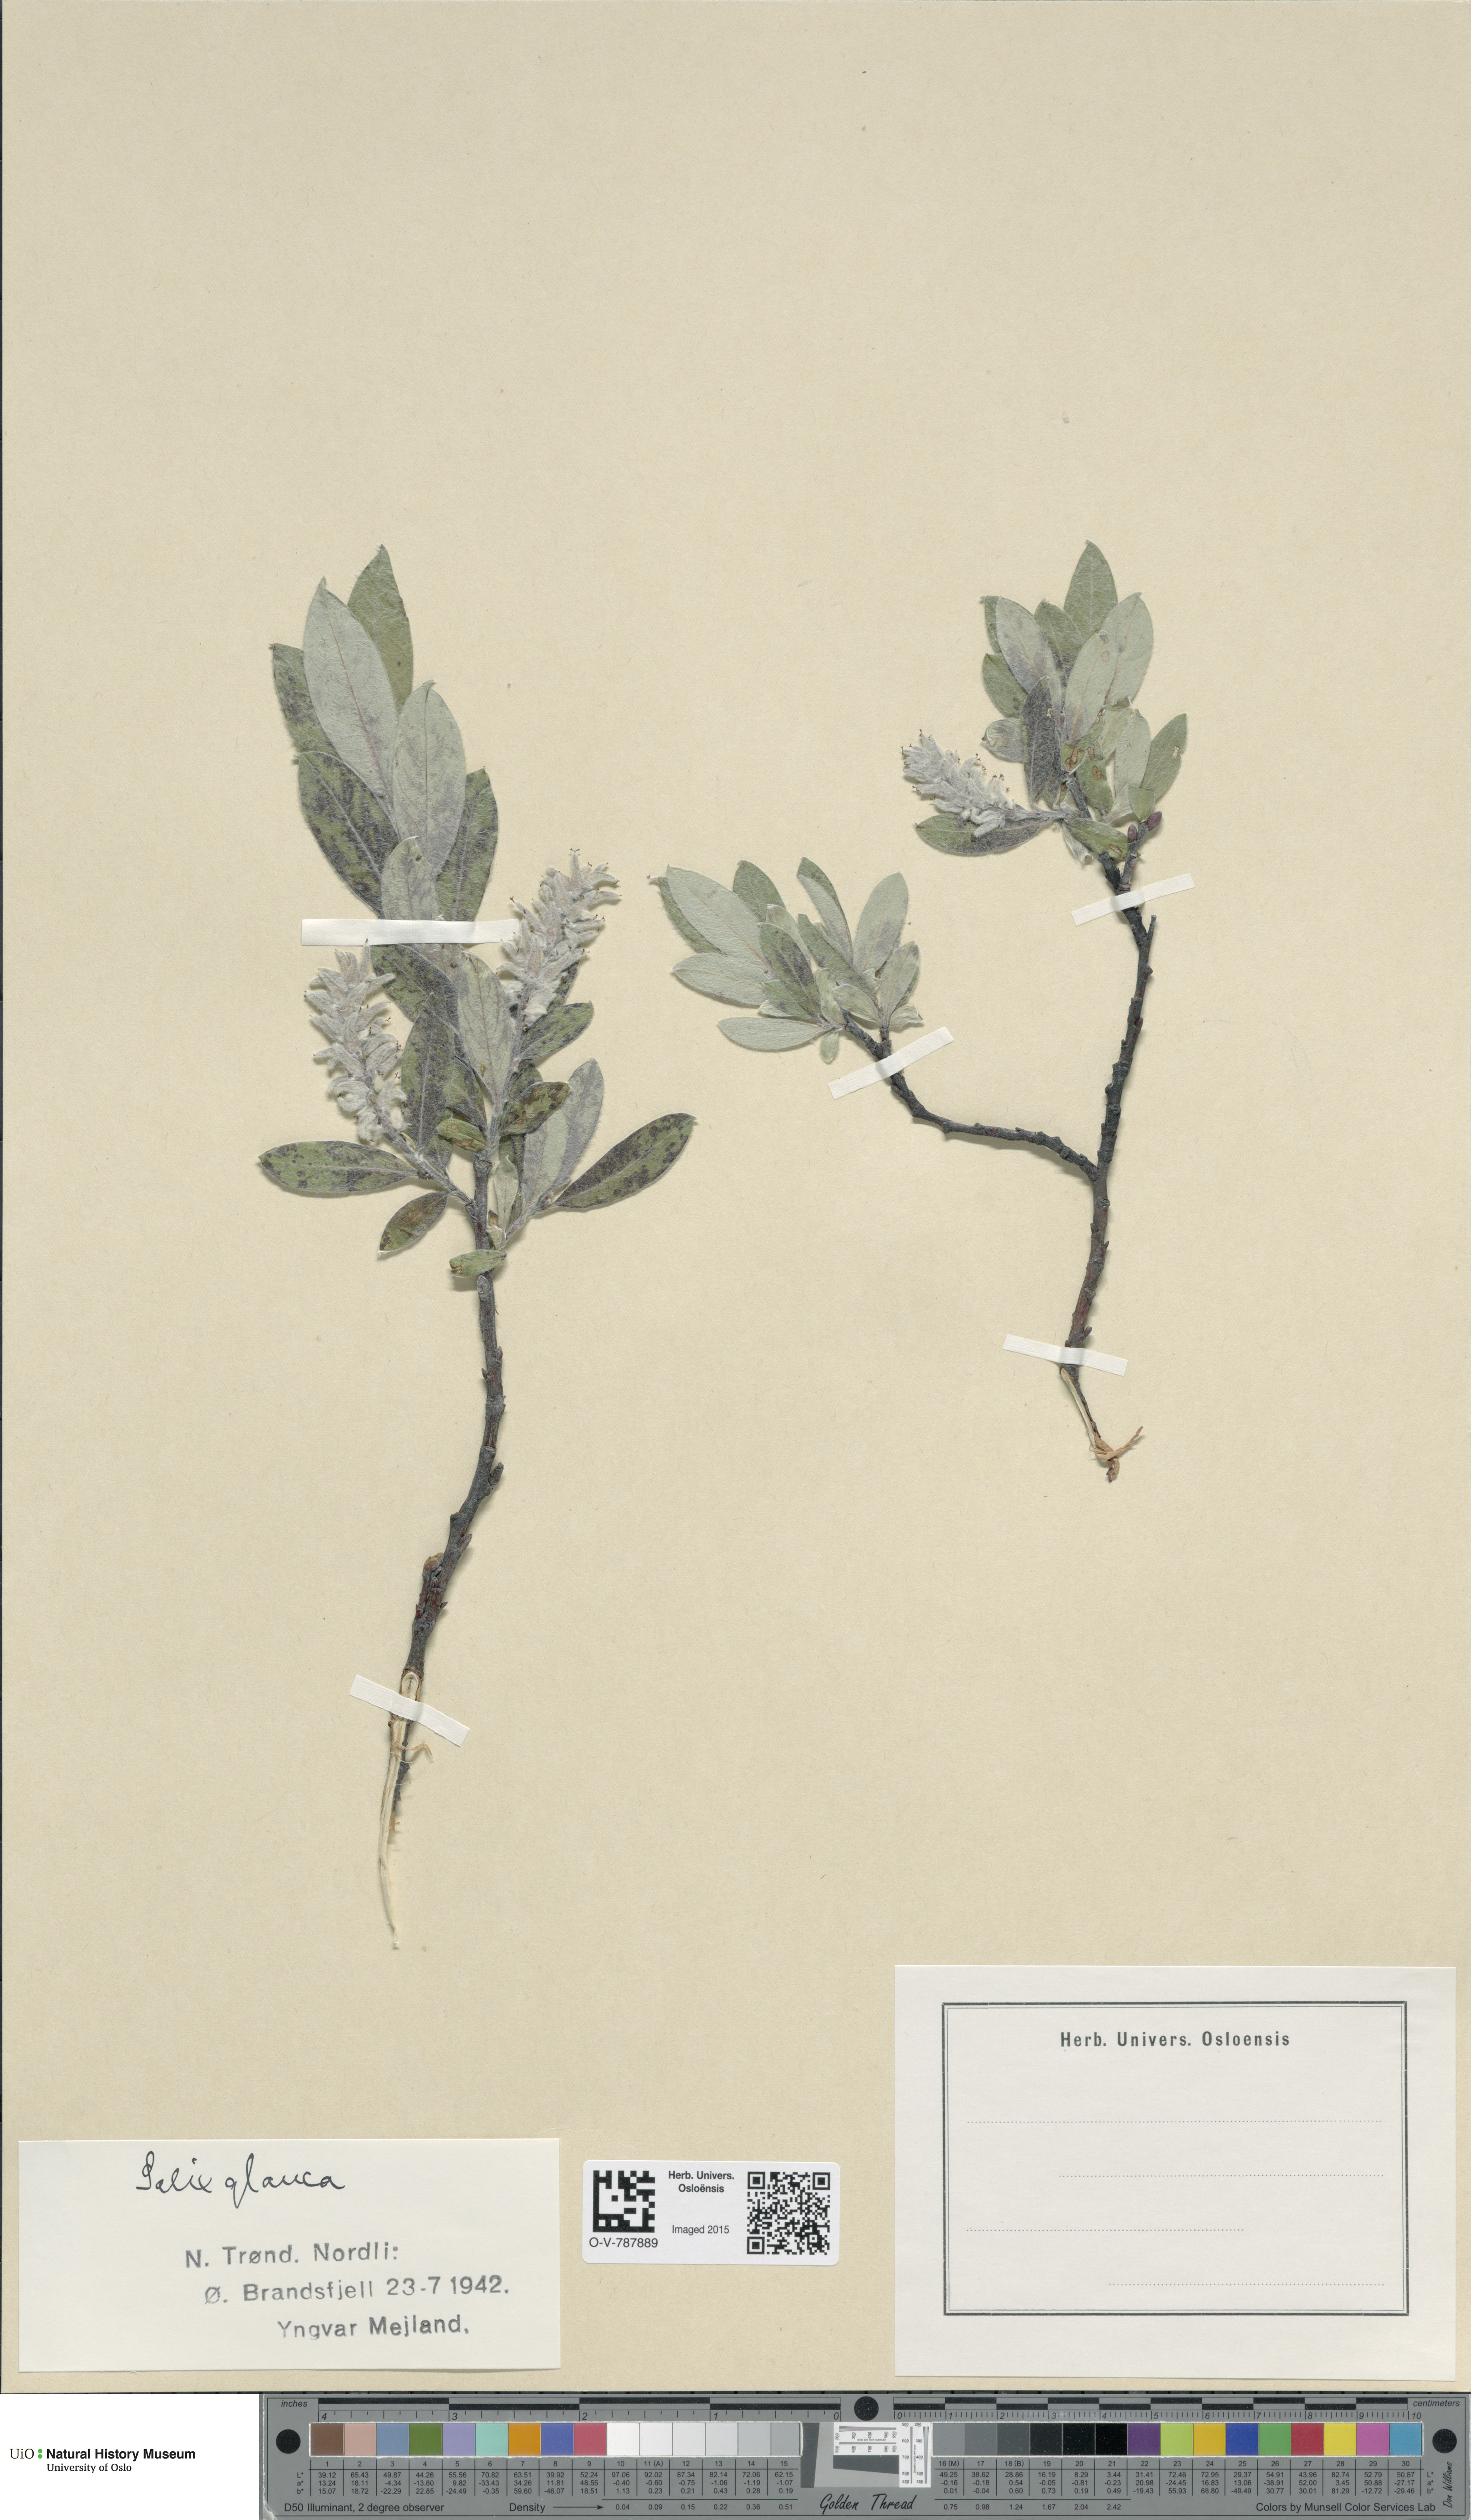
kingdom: Plantae
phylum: Tracheophyta
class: Magnoliopsida
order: Malpighiales
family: Salicaceae
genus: Salix
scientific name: Salix glauca
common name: Glaucous willow
